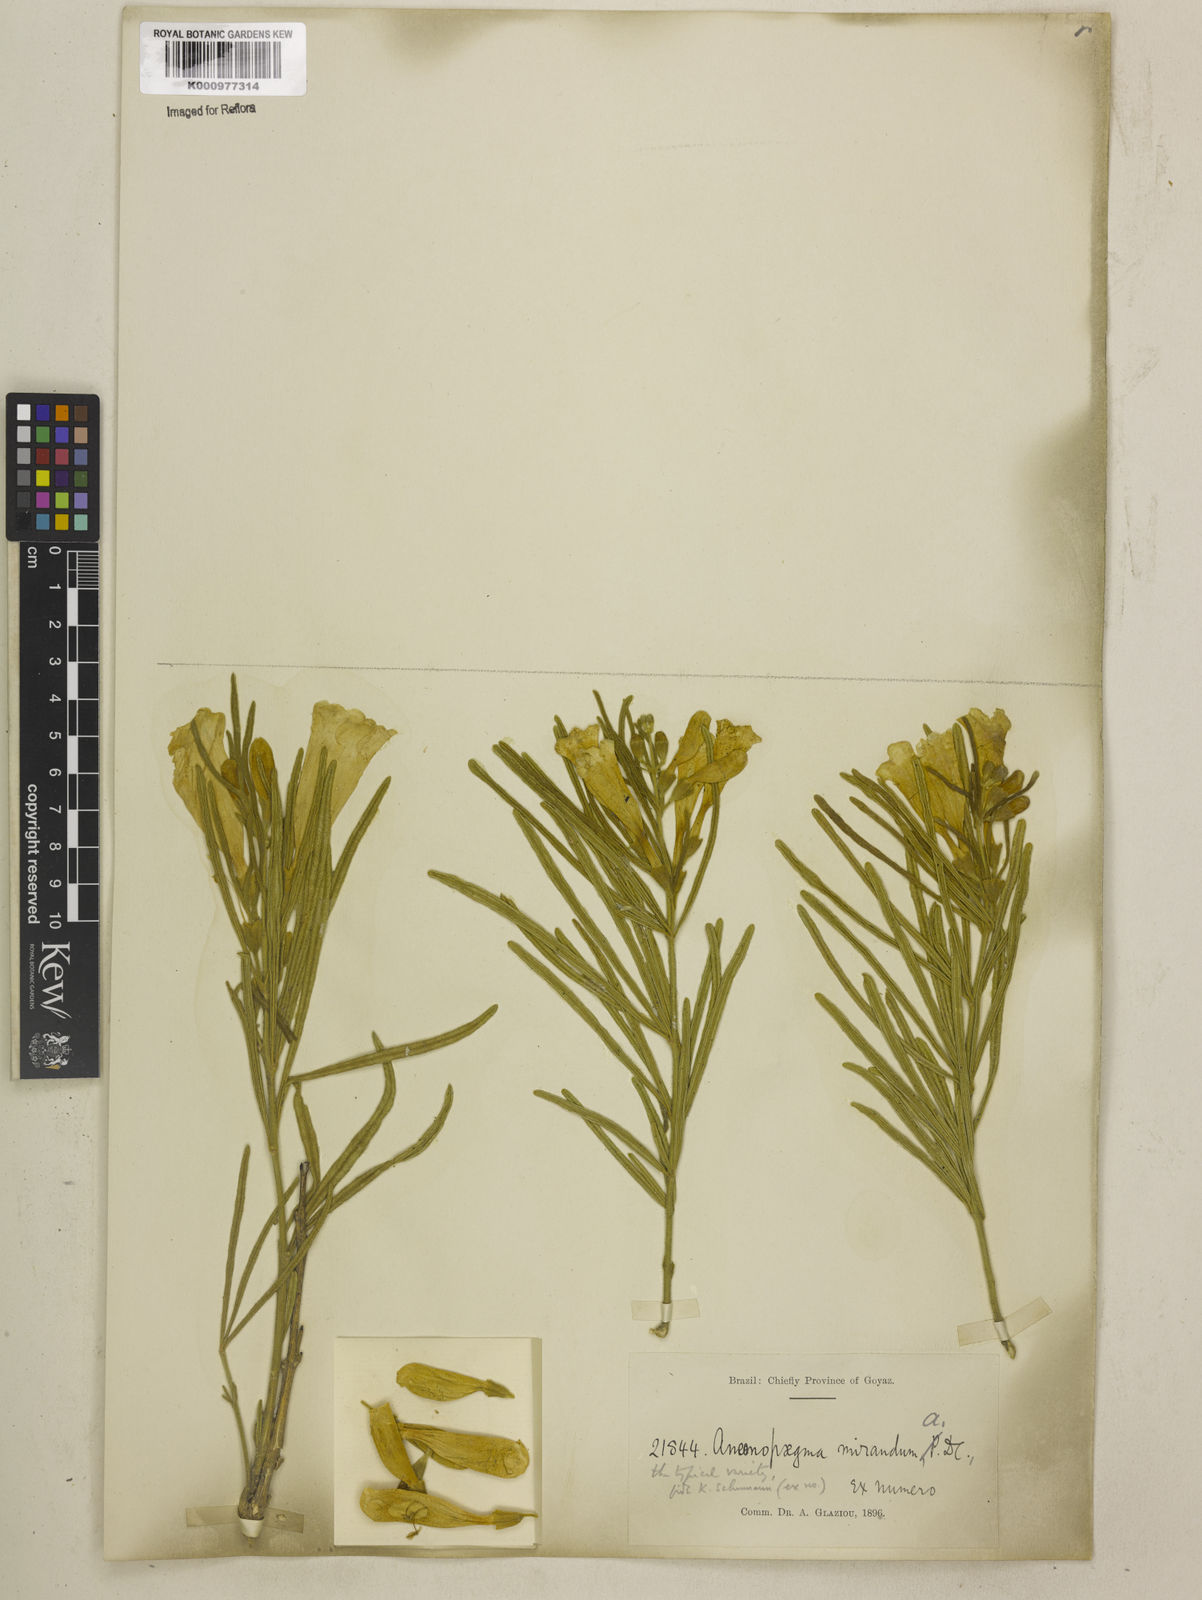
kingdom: Plantae
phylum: Tracheophyta
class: Magnoliopsida
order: Lamiales
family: Bignoniaceae
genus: Anemopaegma
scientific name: Anemopaegma arvense
